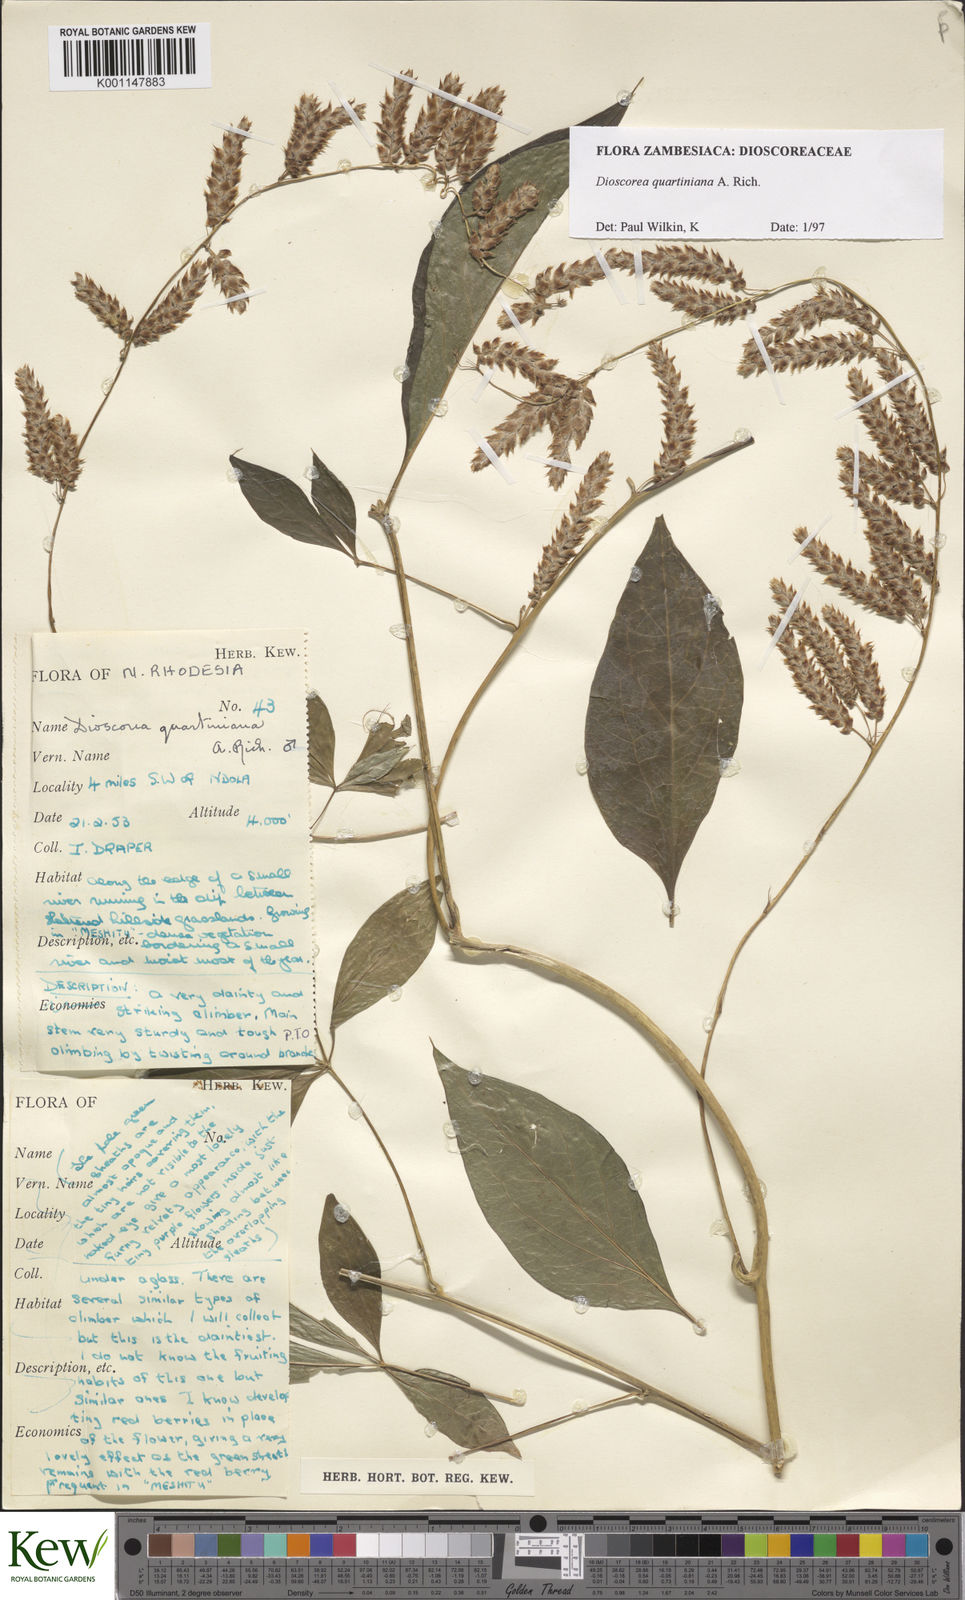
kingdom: Plantae
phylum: Tracheophyta
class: Liliopsida
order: Dioscoreales
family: Dioscoreaceae
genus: Dioscorea
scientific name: Dioscorea quartiniana
